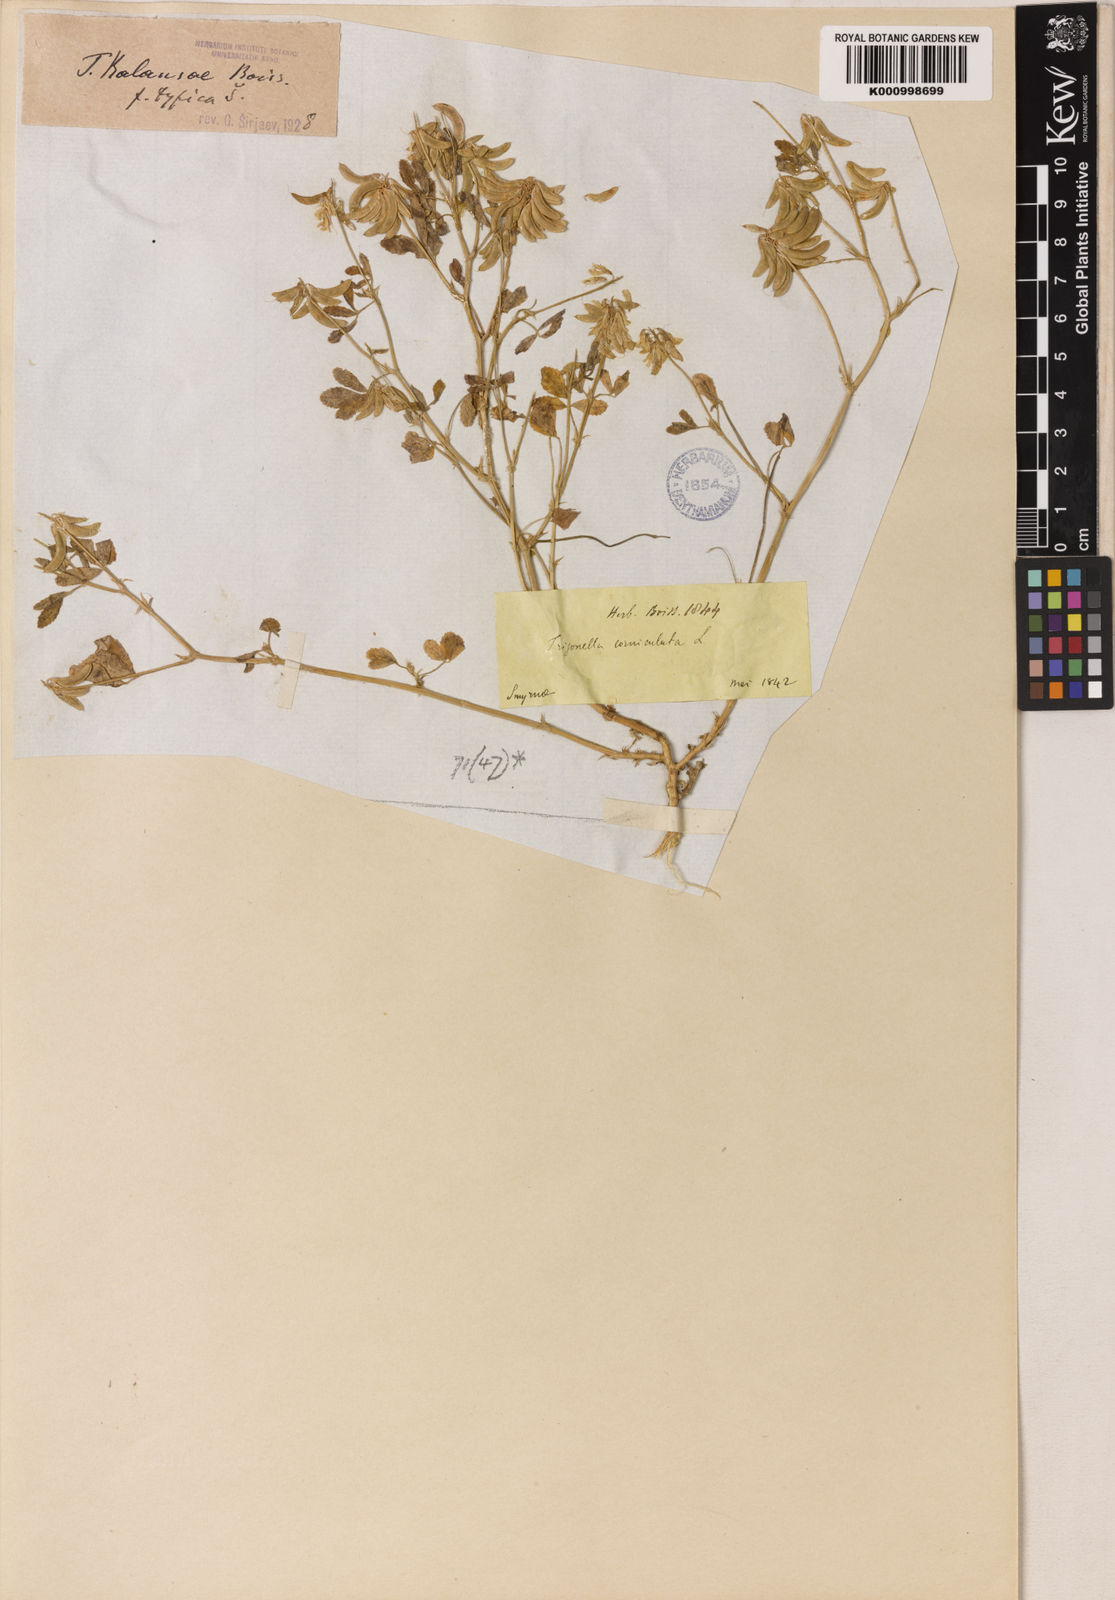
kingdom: Plantae
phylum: Tracheophyta
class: Magnoliopsida
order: Fabales
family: Fabaceae
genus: Trigonella
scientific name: Trigonella balansae
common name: Sickle-fruited fenugreek
